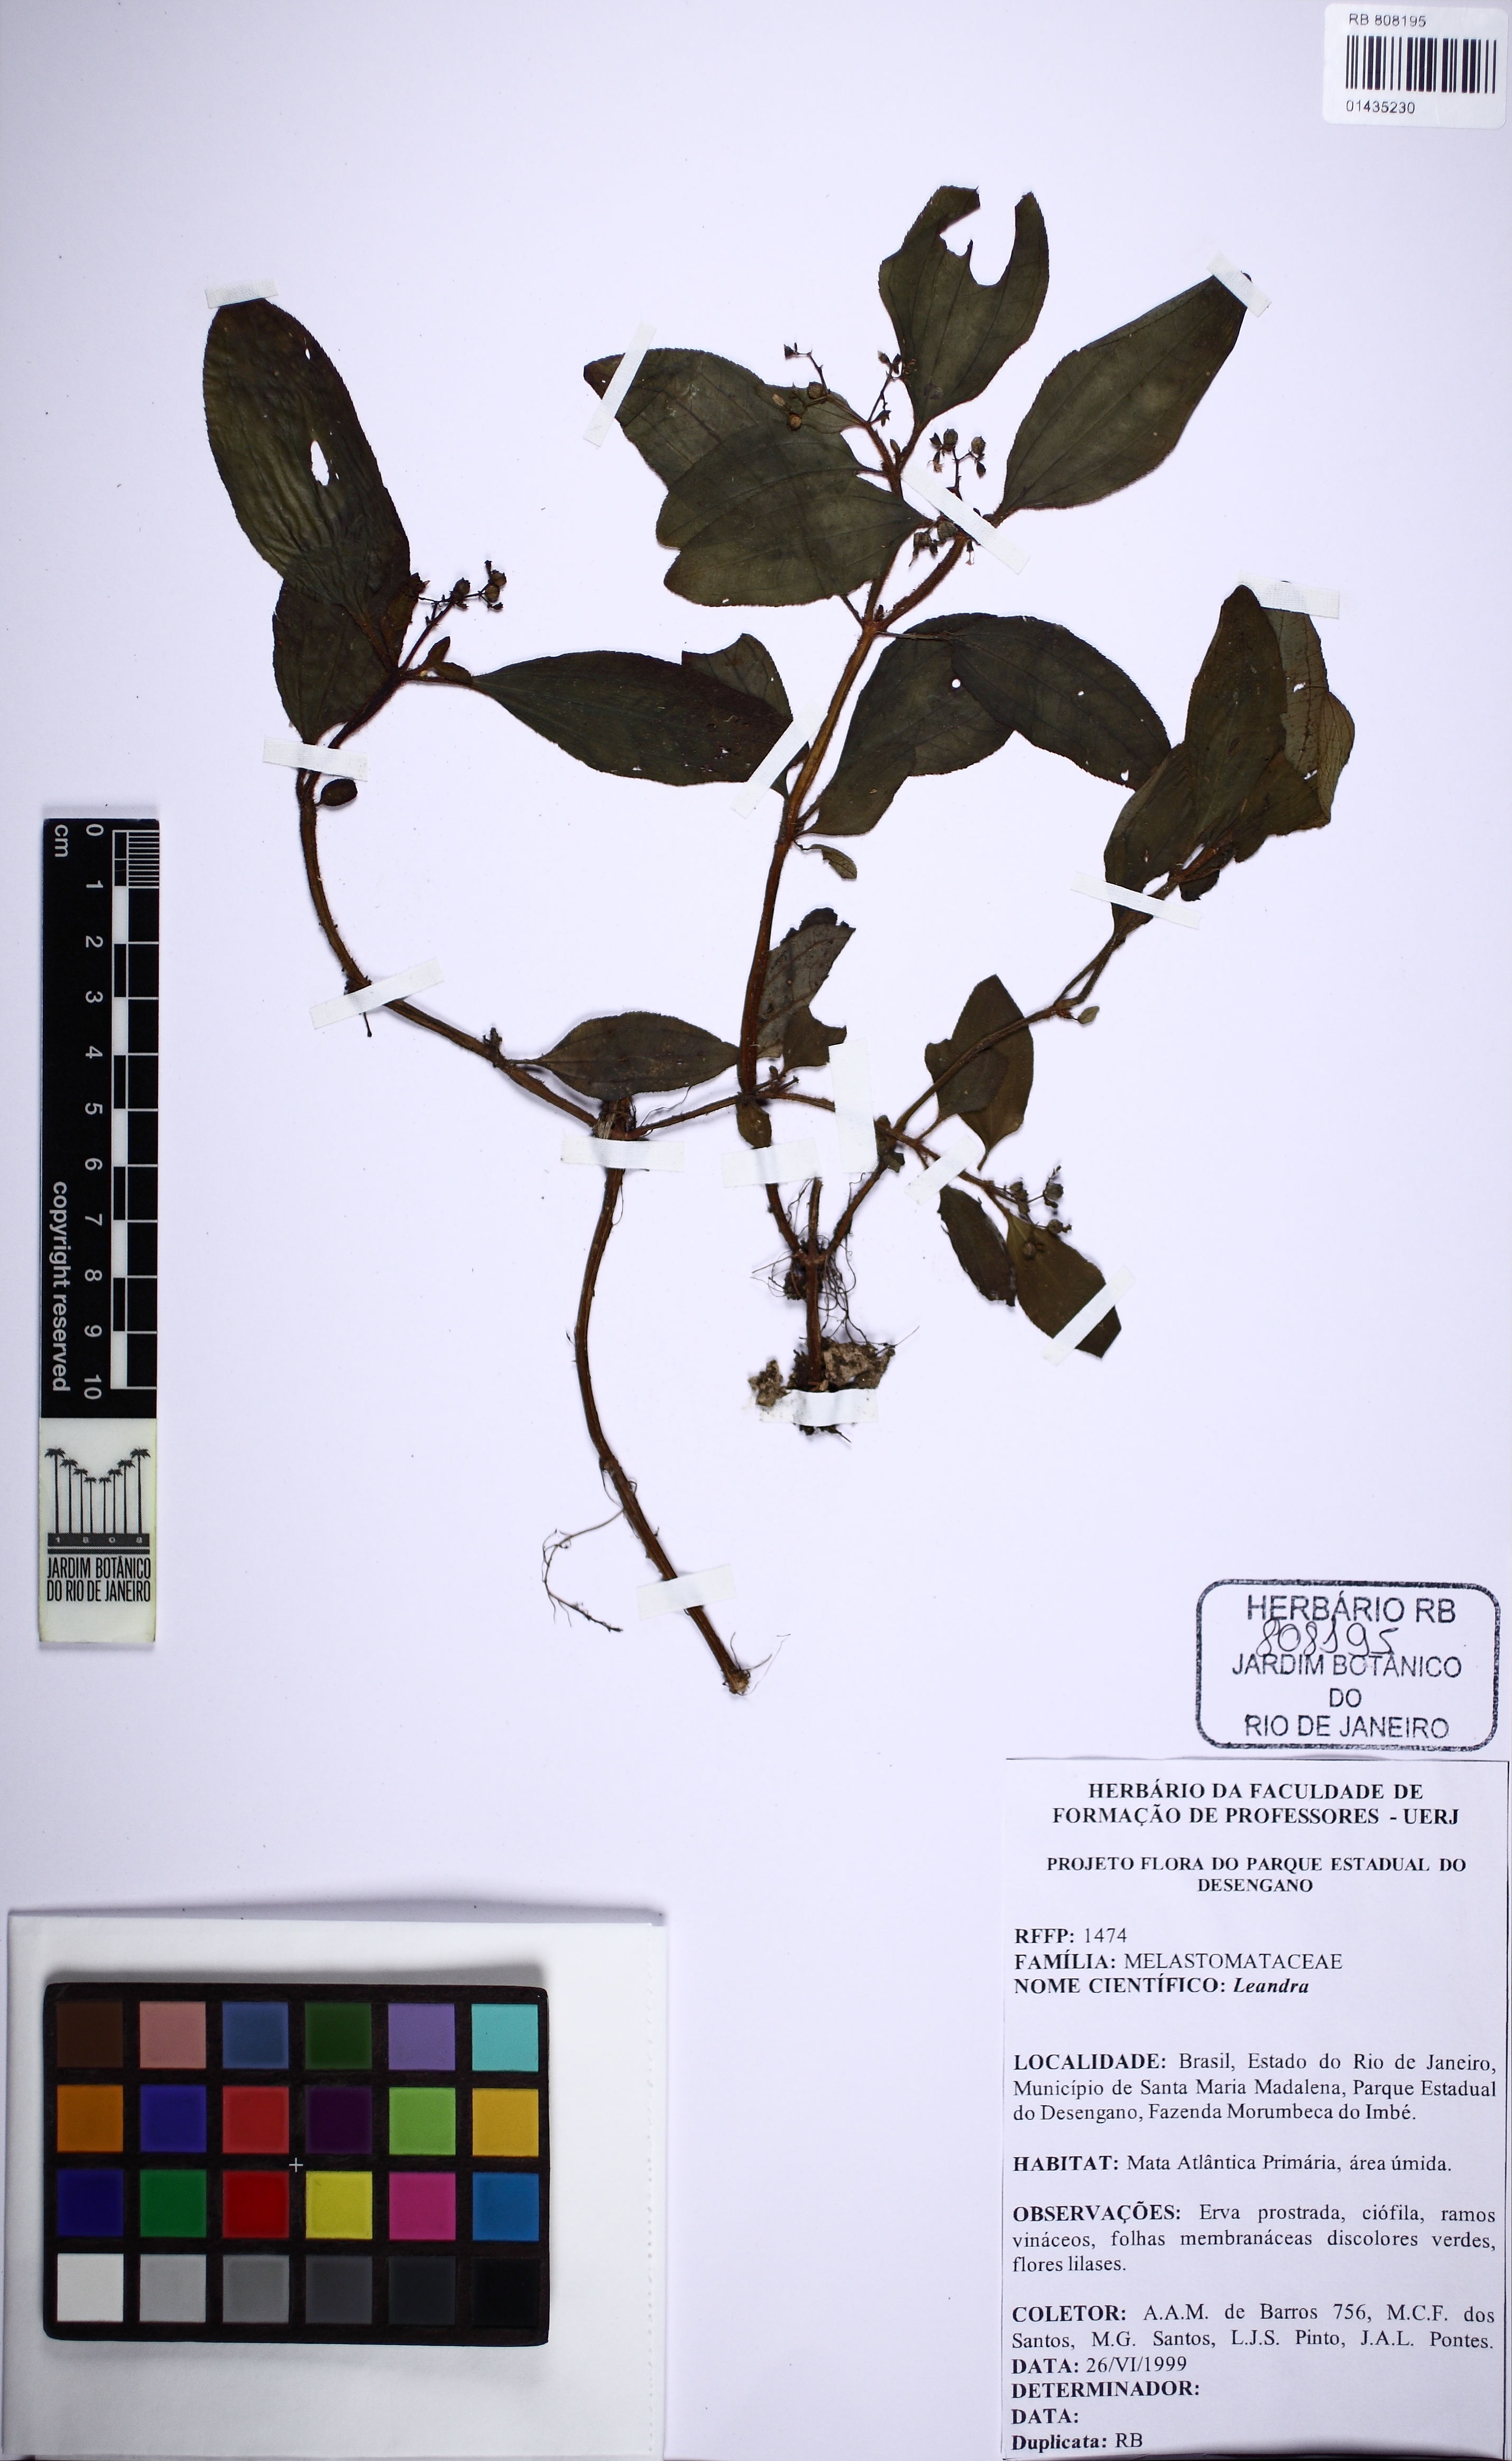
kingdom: Plantae
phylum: Tracheophyta
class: Magnoliopsida
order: Myrtales
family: Melastomataceae
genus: Miconia
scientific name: Miconia
